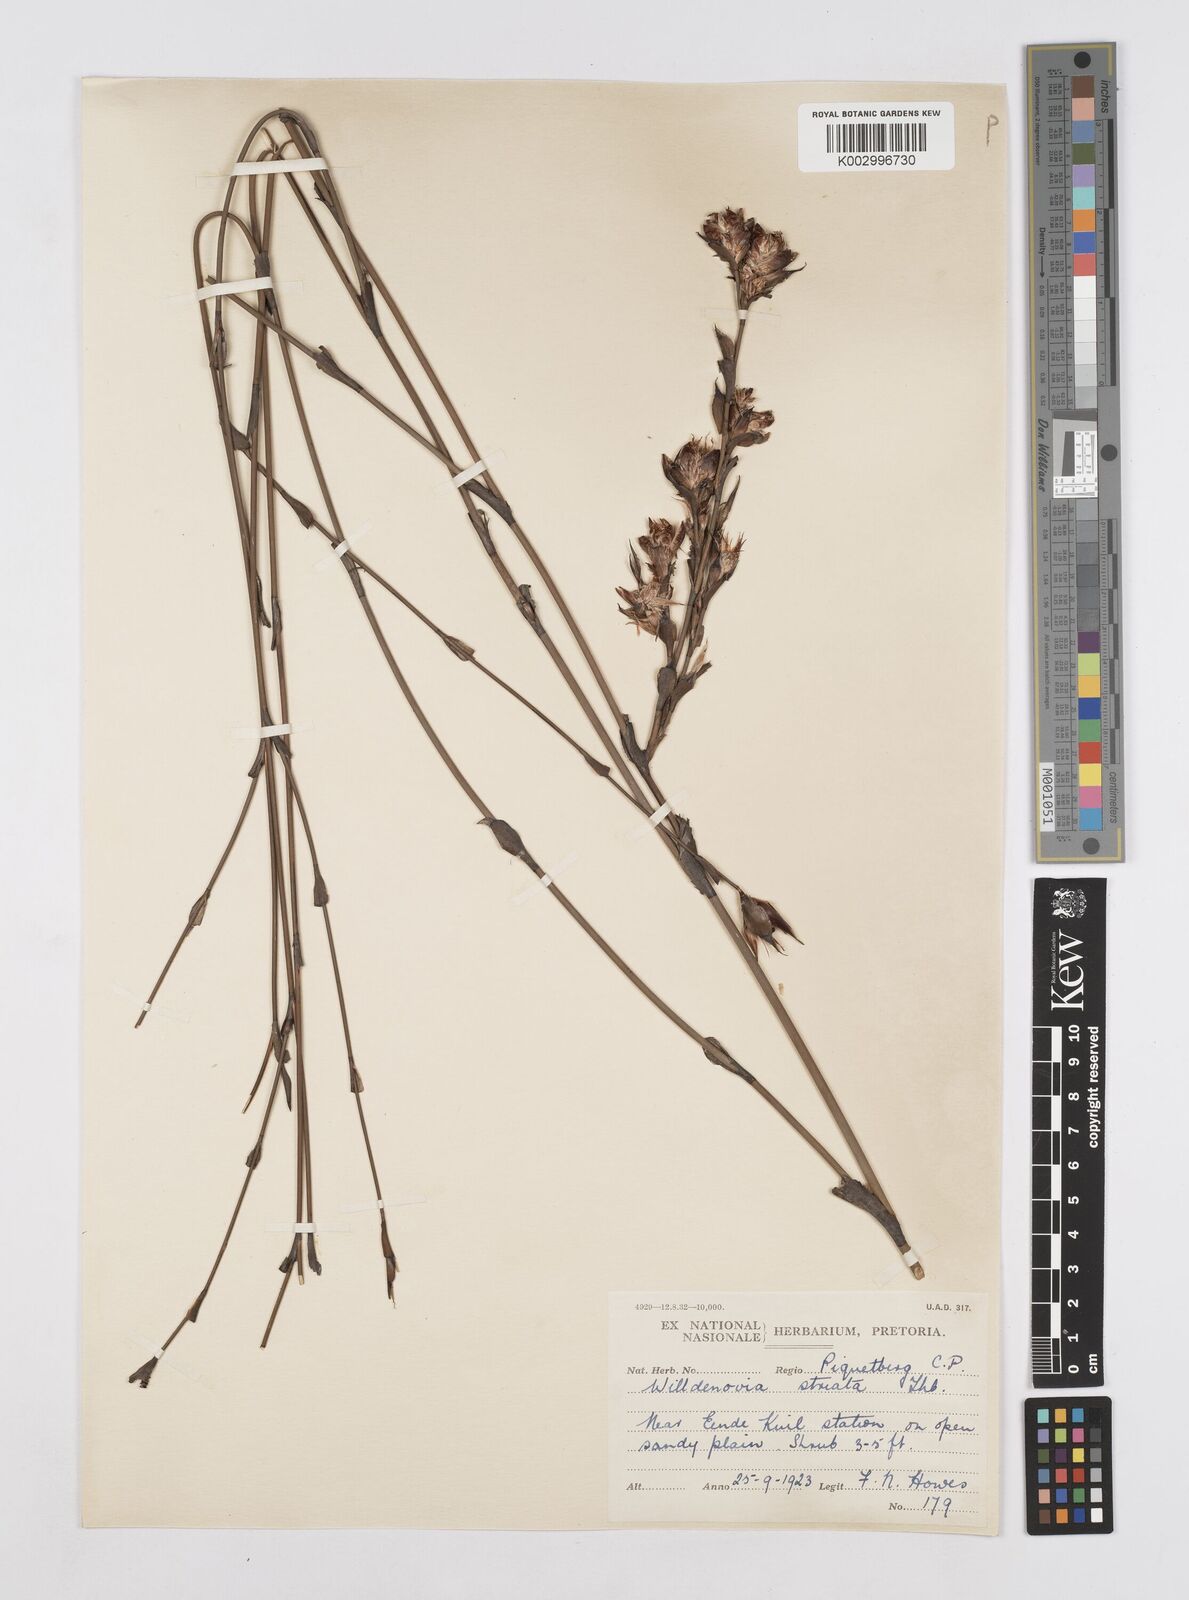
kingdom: Plantae
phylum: Tracheophyta
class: Liliopsida
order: Poales
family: Restionaceae
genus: Willdenowia
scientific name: Willdenowia incurvata
